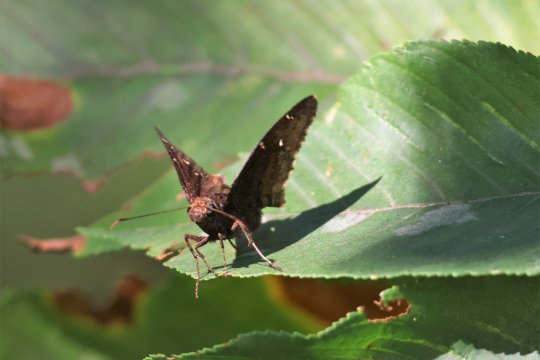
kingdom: Animalia
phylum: Arthropoda
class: Insecta
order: Lepidoptera
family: Hesperiidae
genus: Autochton
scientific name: Autochton
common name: Northern Cloudywing
